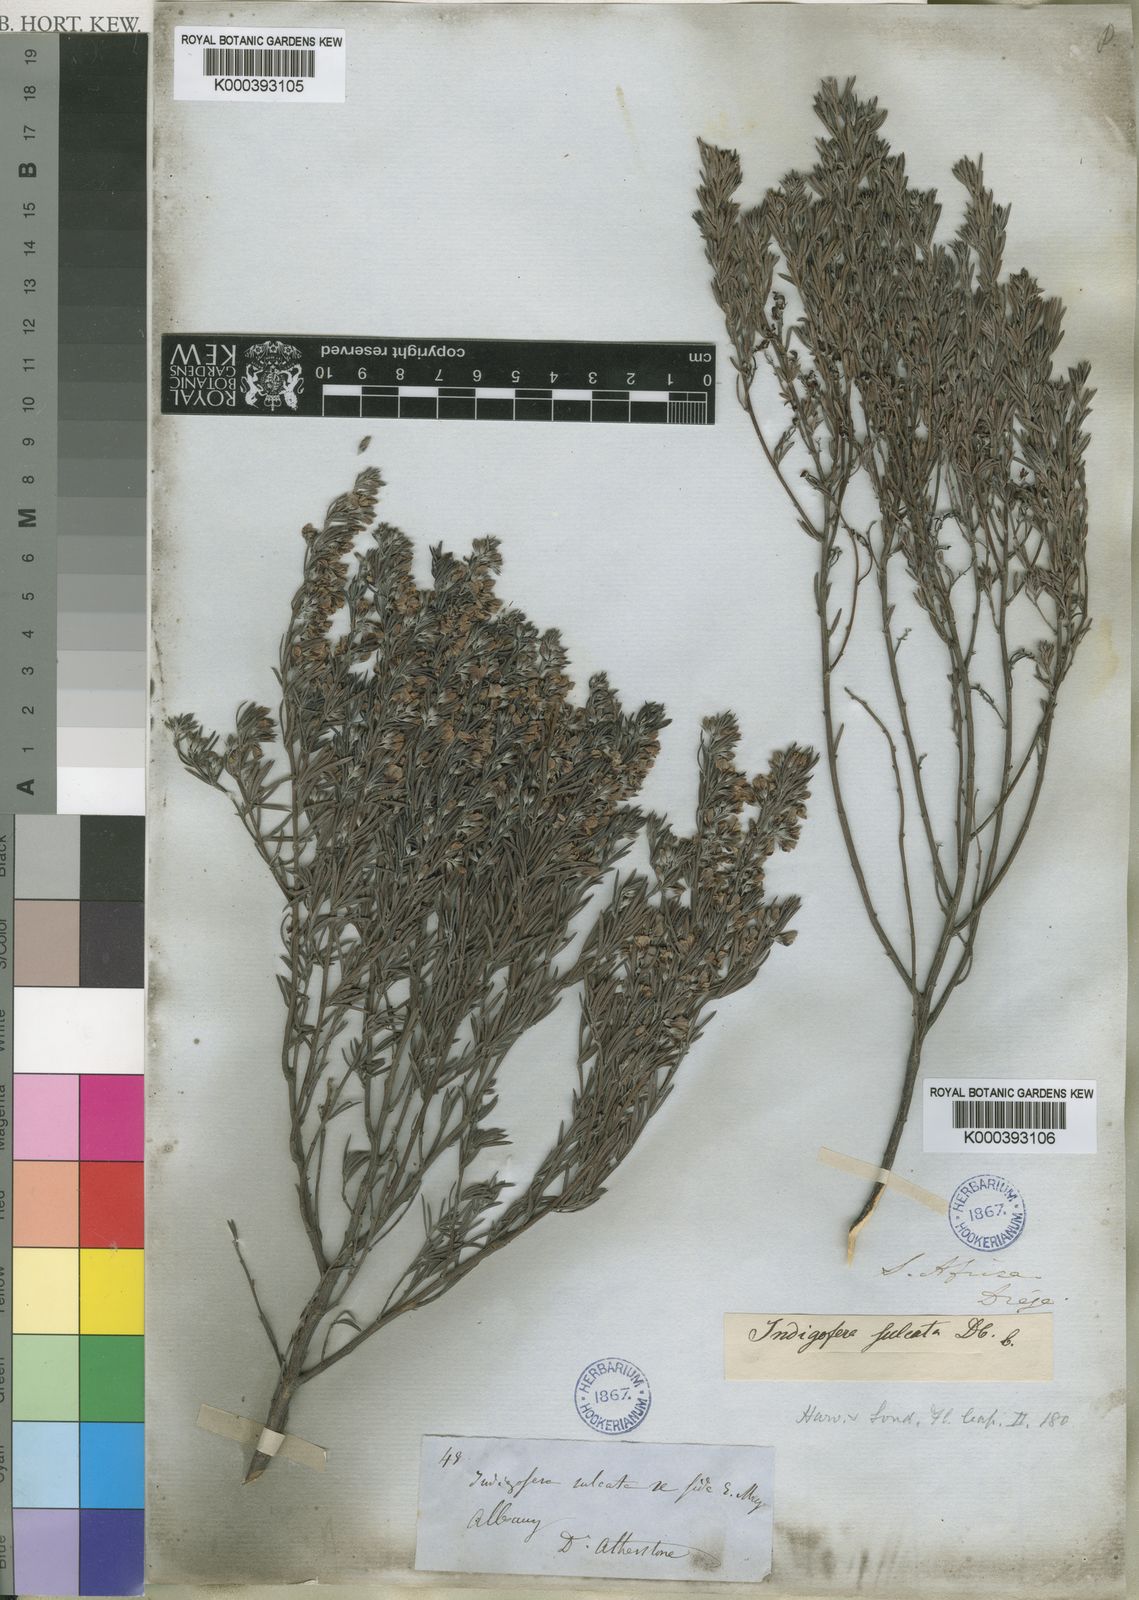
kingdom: Plantae
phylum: Tracheophyta
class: Magnoliopsida
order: Fabales
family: Fabaceae
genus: Indigofera
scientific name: Indigofera sulcata
